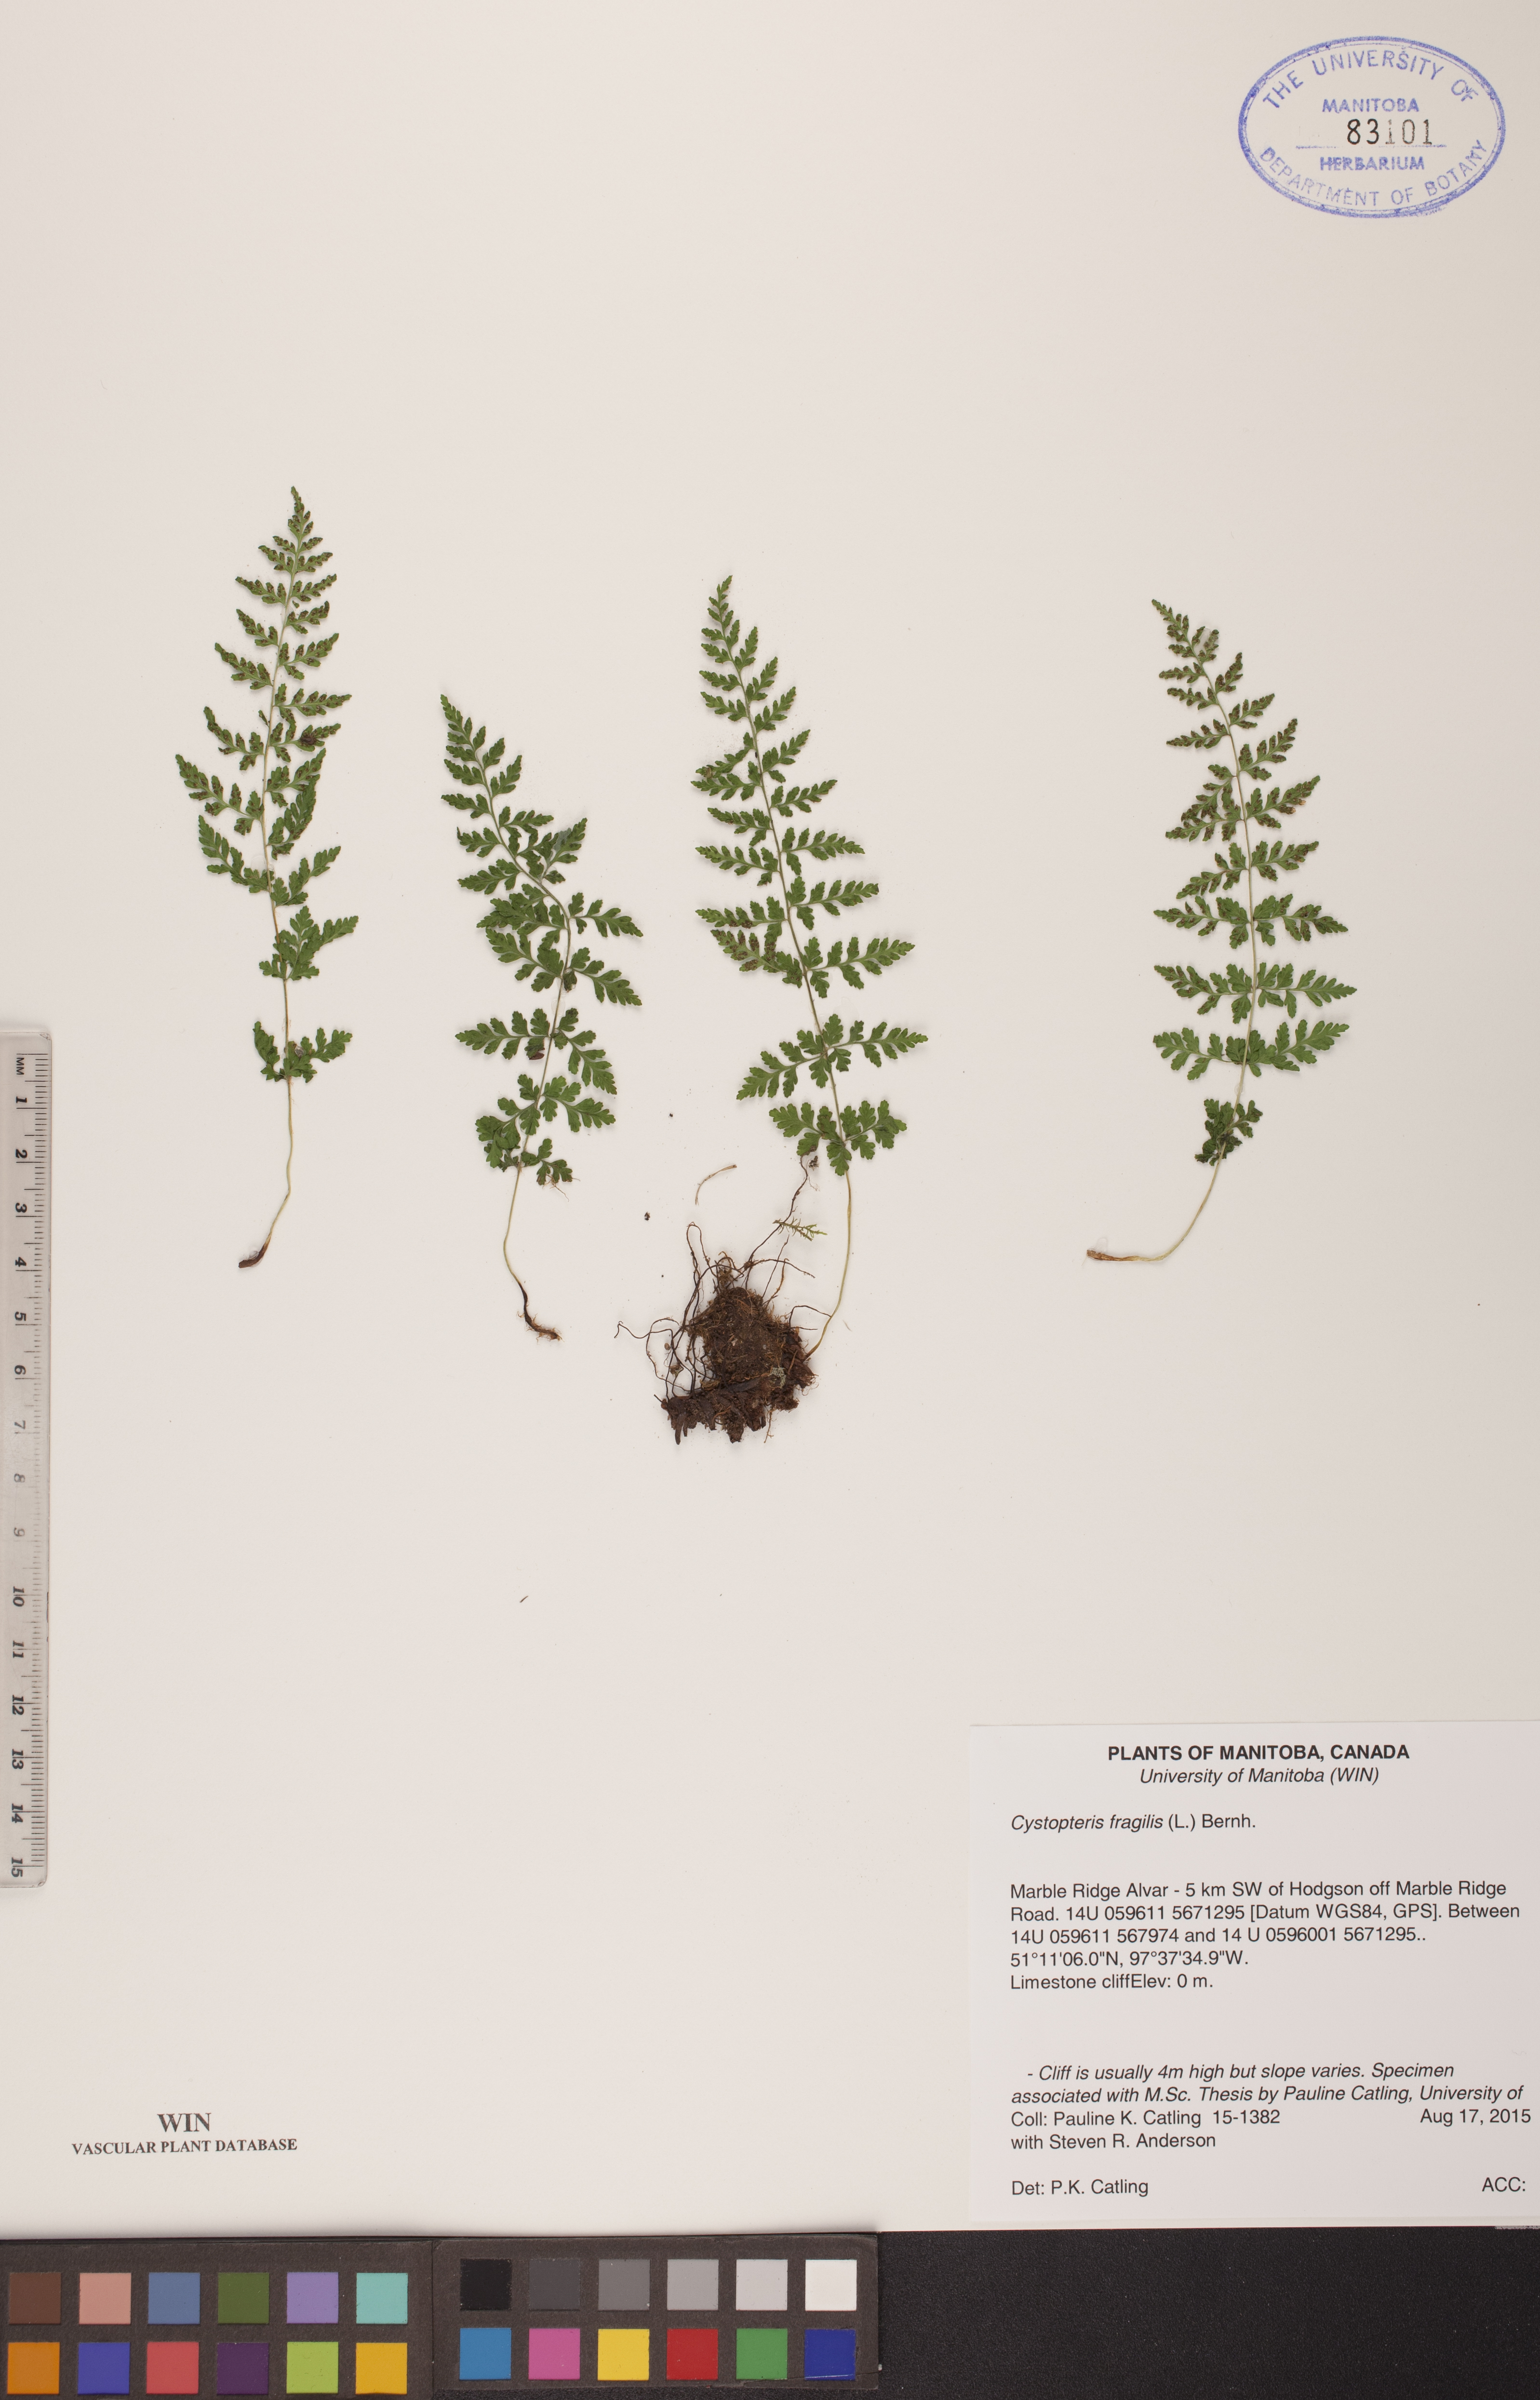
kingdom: Plantae
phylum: Tracheophyta
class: Polypodiopsida
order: Polypodiales
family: Cystopteridaceae
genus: Cystopteris
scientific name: Cystopteris fragilis
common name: Brittle bladder fern
